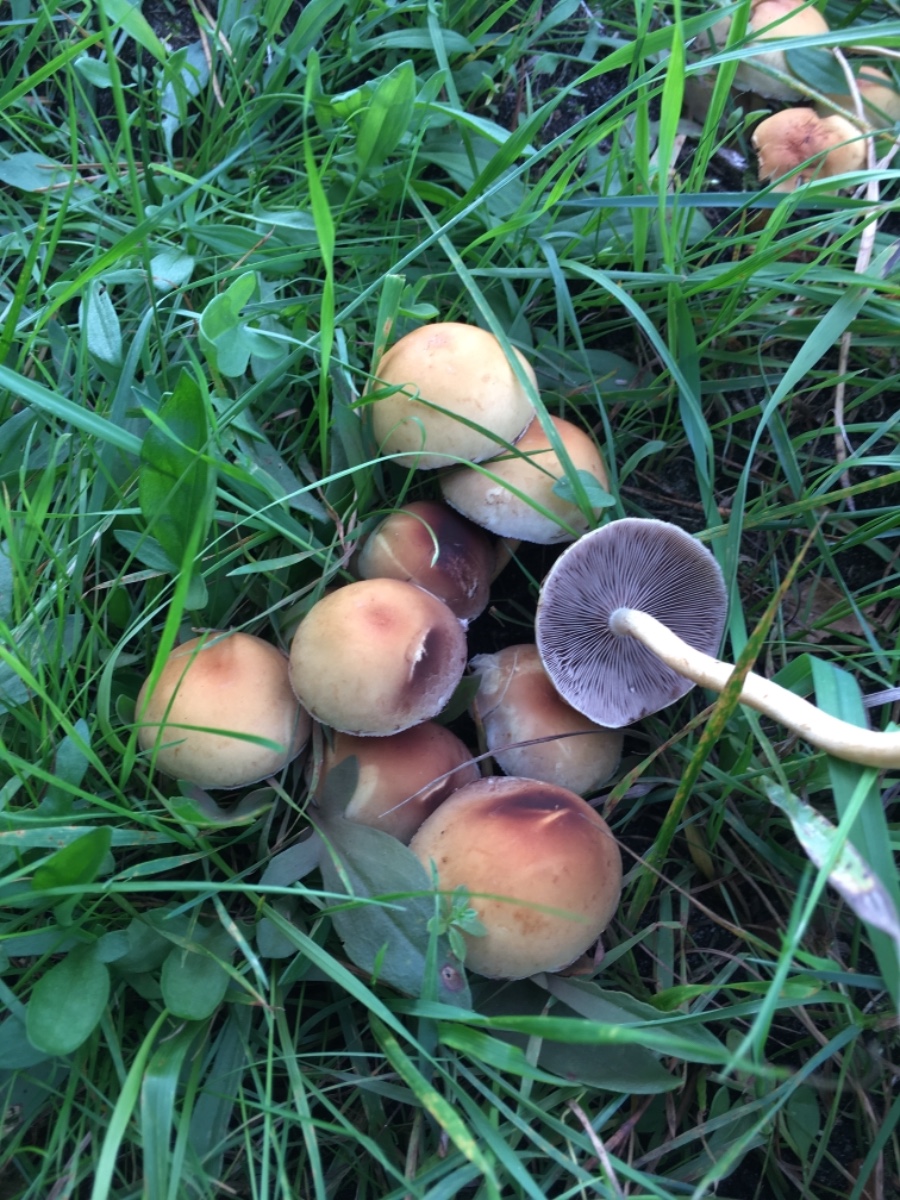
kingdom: Fungi
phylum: Basidiomycota
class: Agaricomycetes
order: Agaricales
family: Strophariaceae
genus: Hypholoma
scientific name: Hypholoma
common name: svovlhat
